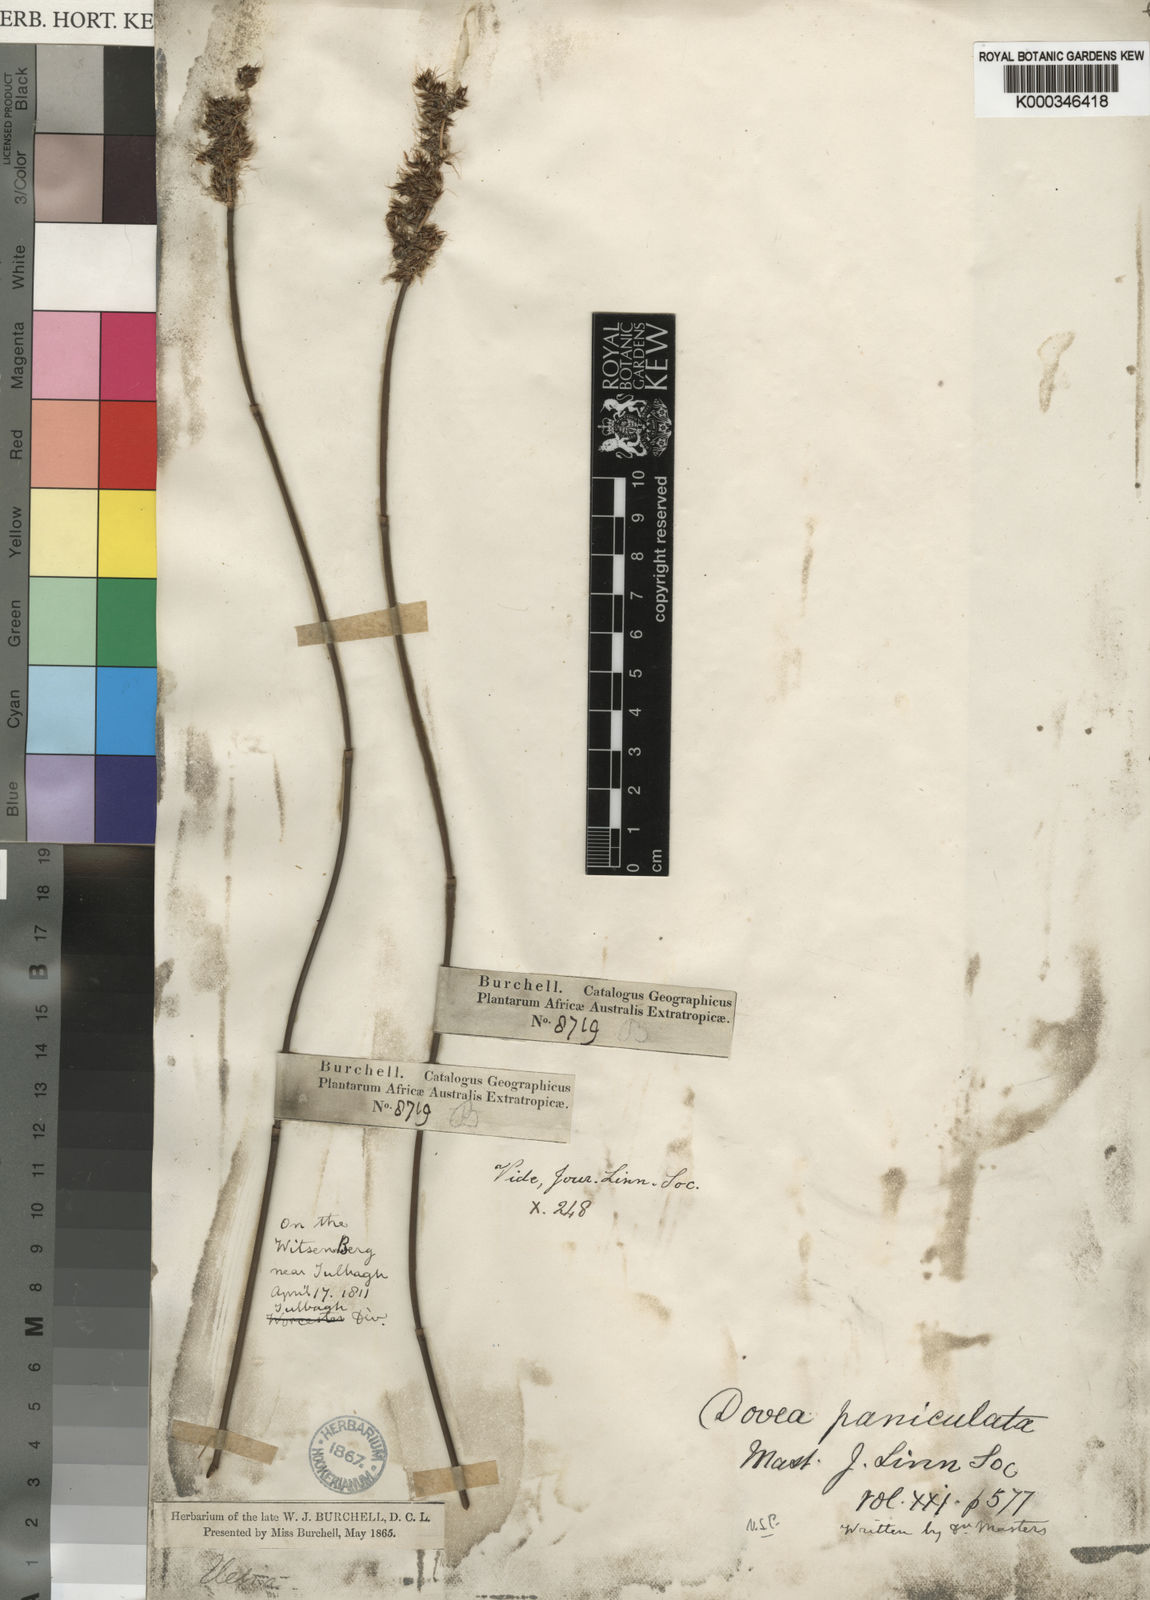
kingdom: Plantae
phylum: Tracheophyta
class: Liliopsida
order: Poales
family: Restionaceae
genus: Askidiosperma
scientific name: Askidiosperma paniculatum
